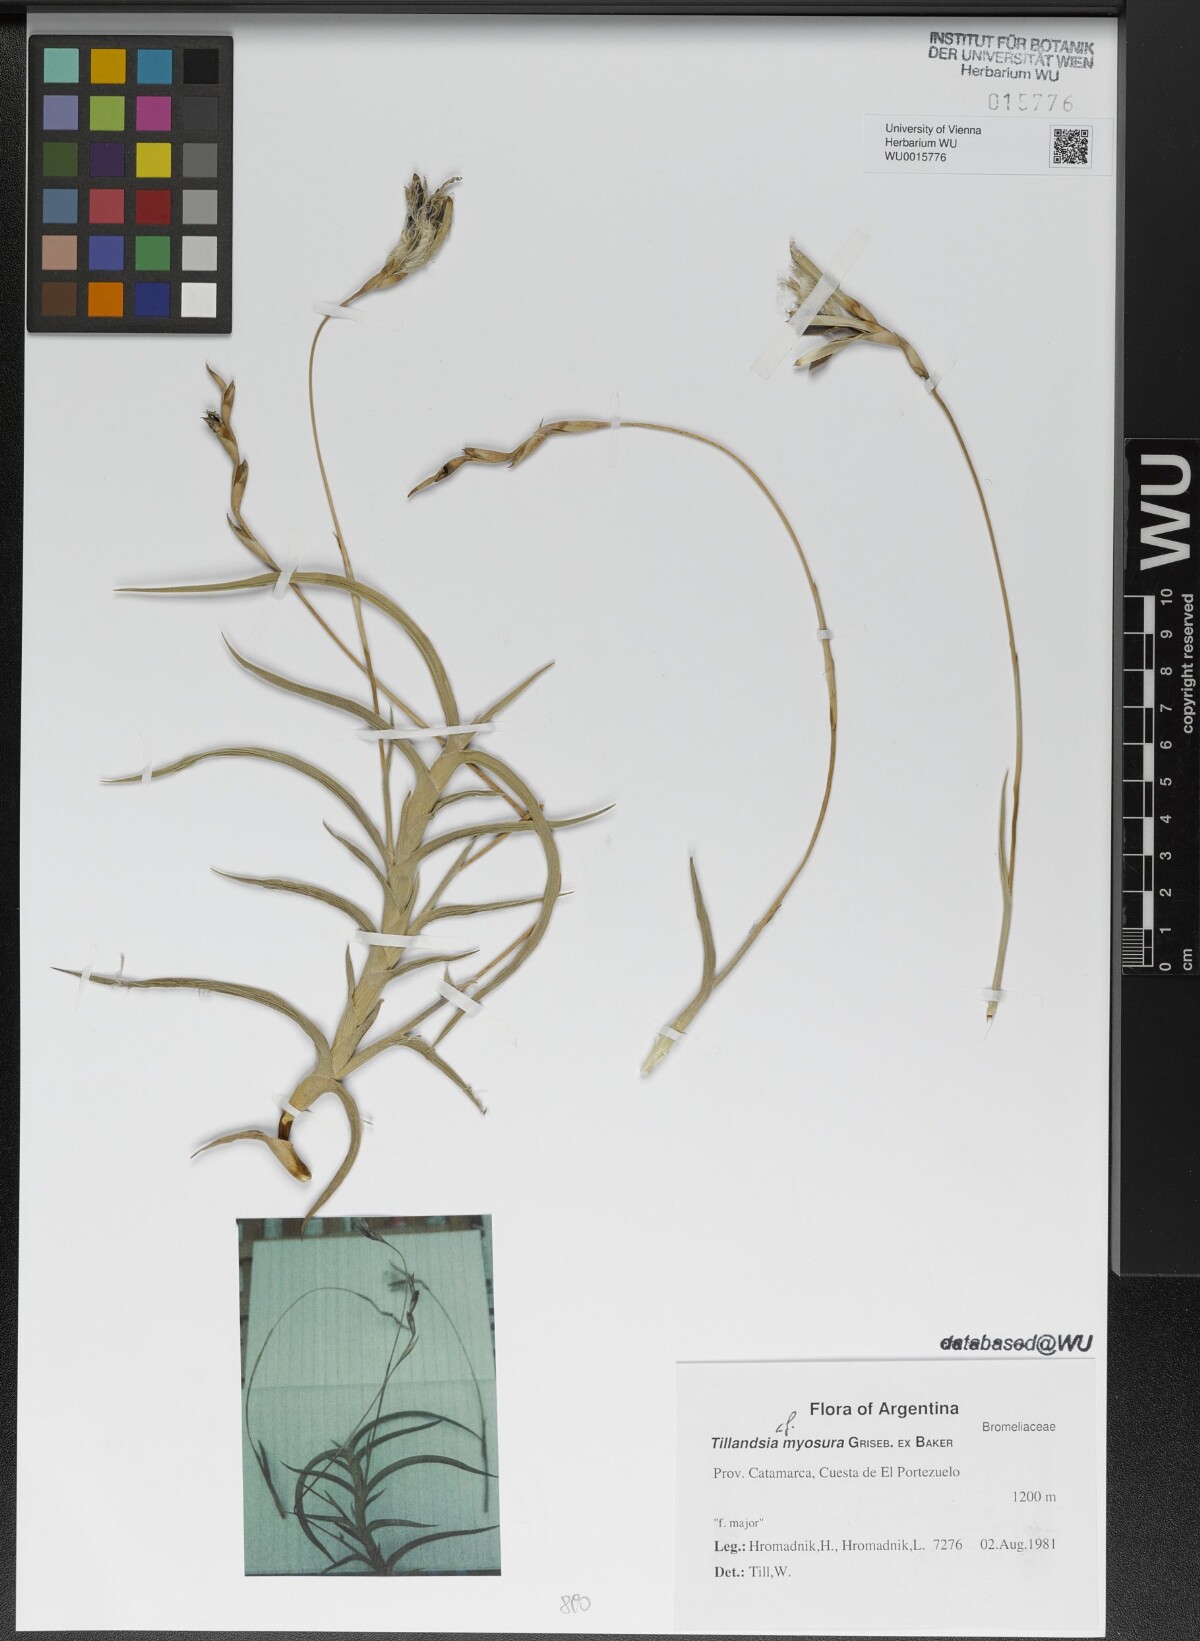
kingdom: Plantae
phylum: Tracheophyta
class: Liliopsida
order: Poales
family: Bromeliaceae
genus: Tillandsia
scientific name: Tillandsia myosura
